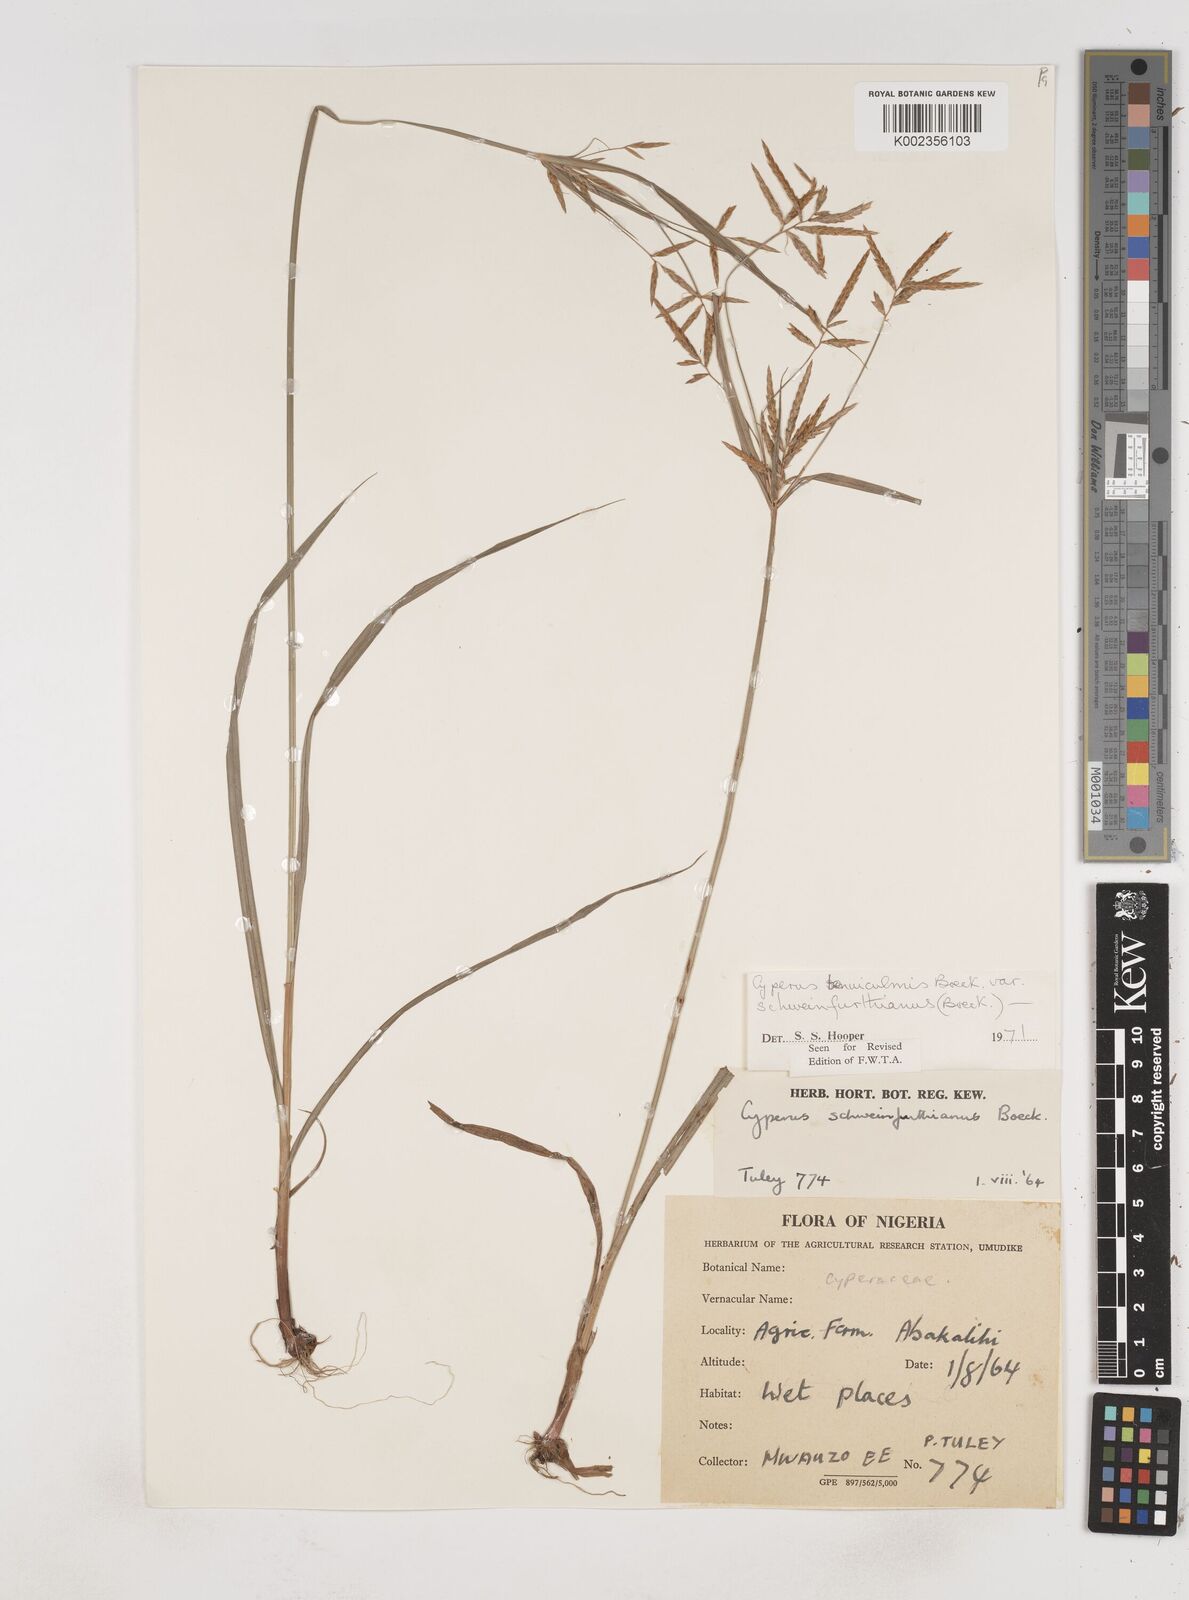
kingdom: Plantae
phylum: Tracheophyta
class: Liliopsida
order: Poales
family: Cyperaceae
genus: Cyperus
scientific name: Cyperus tenuiculmis
